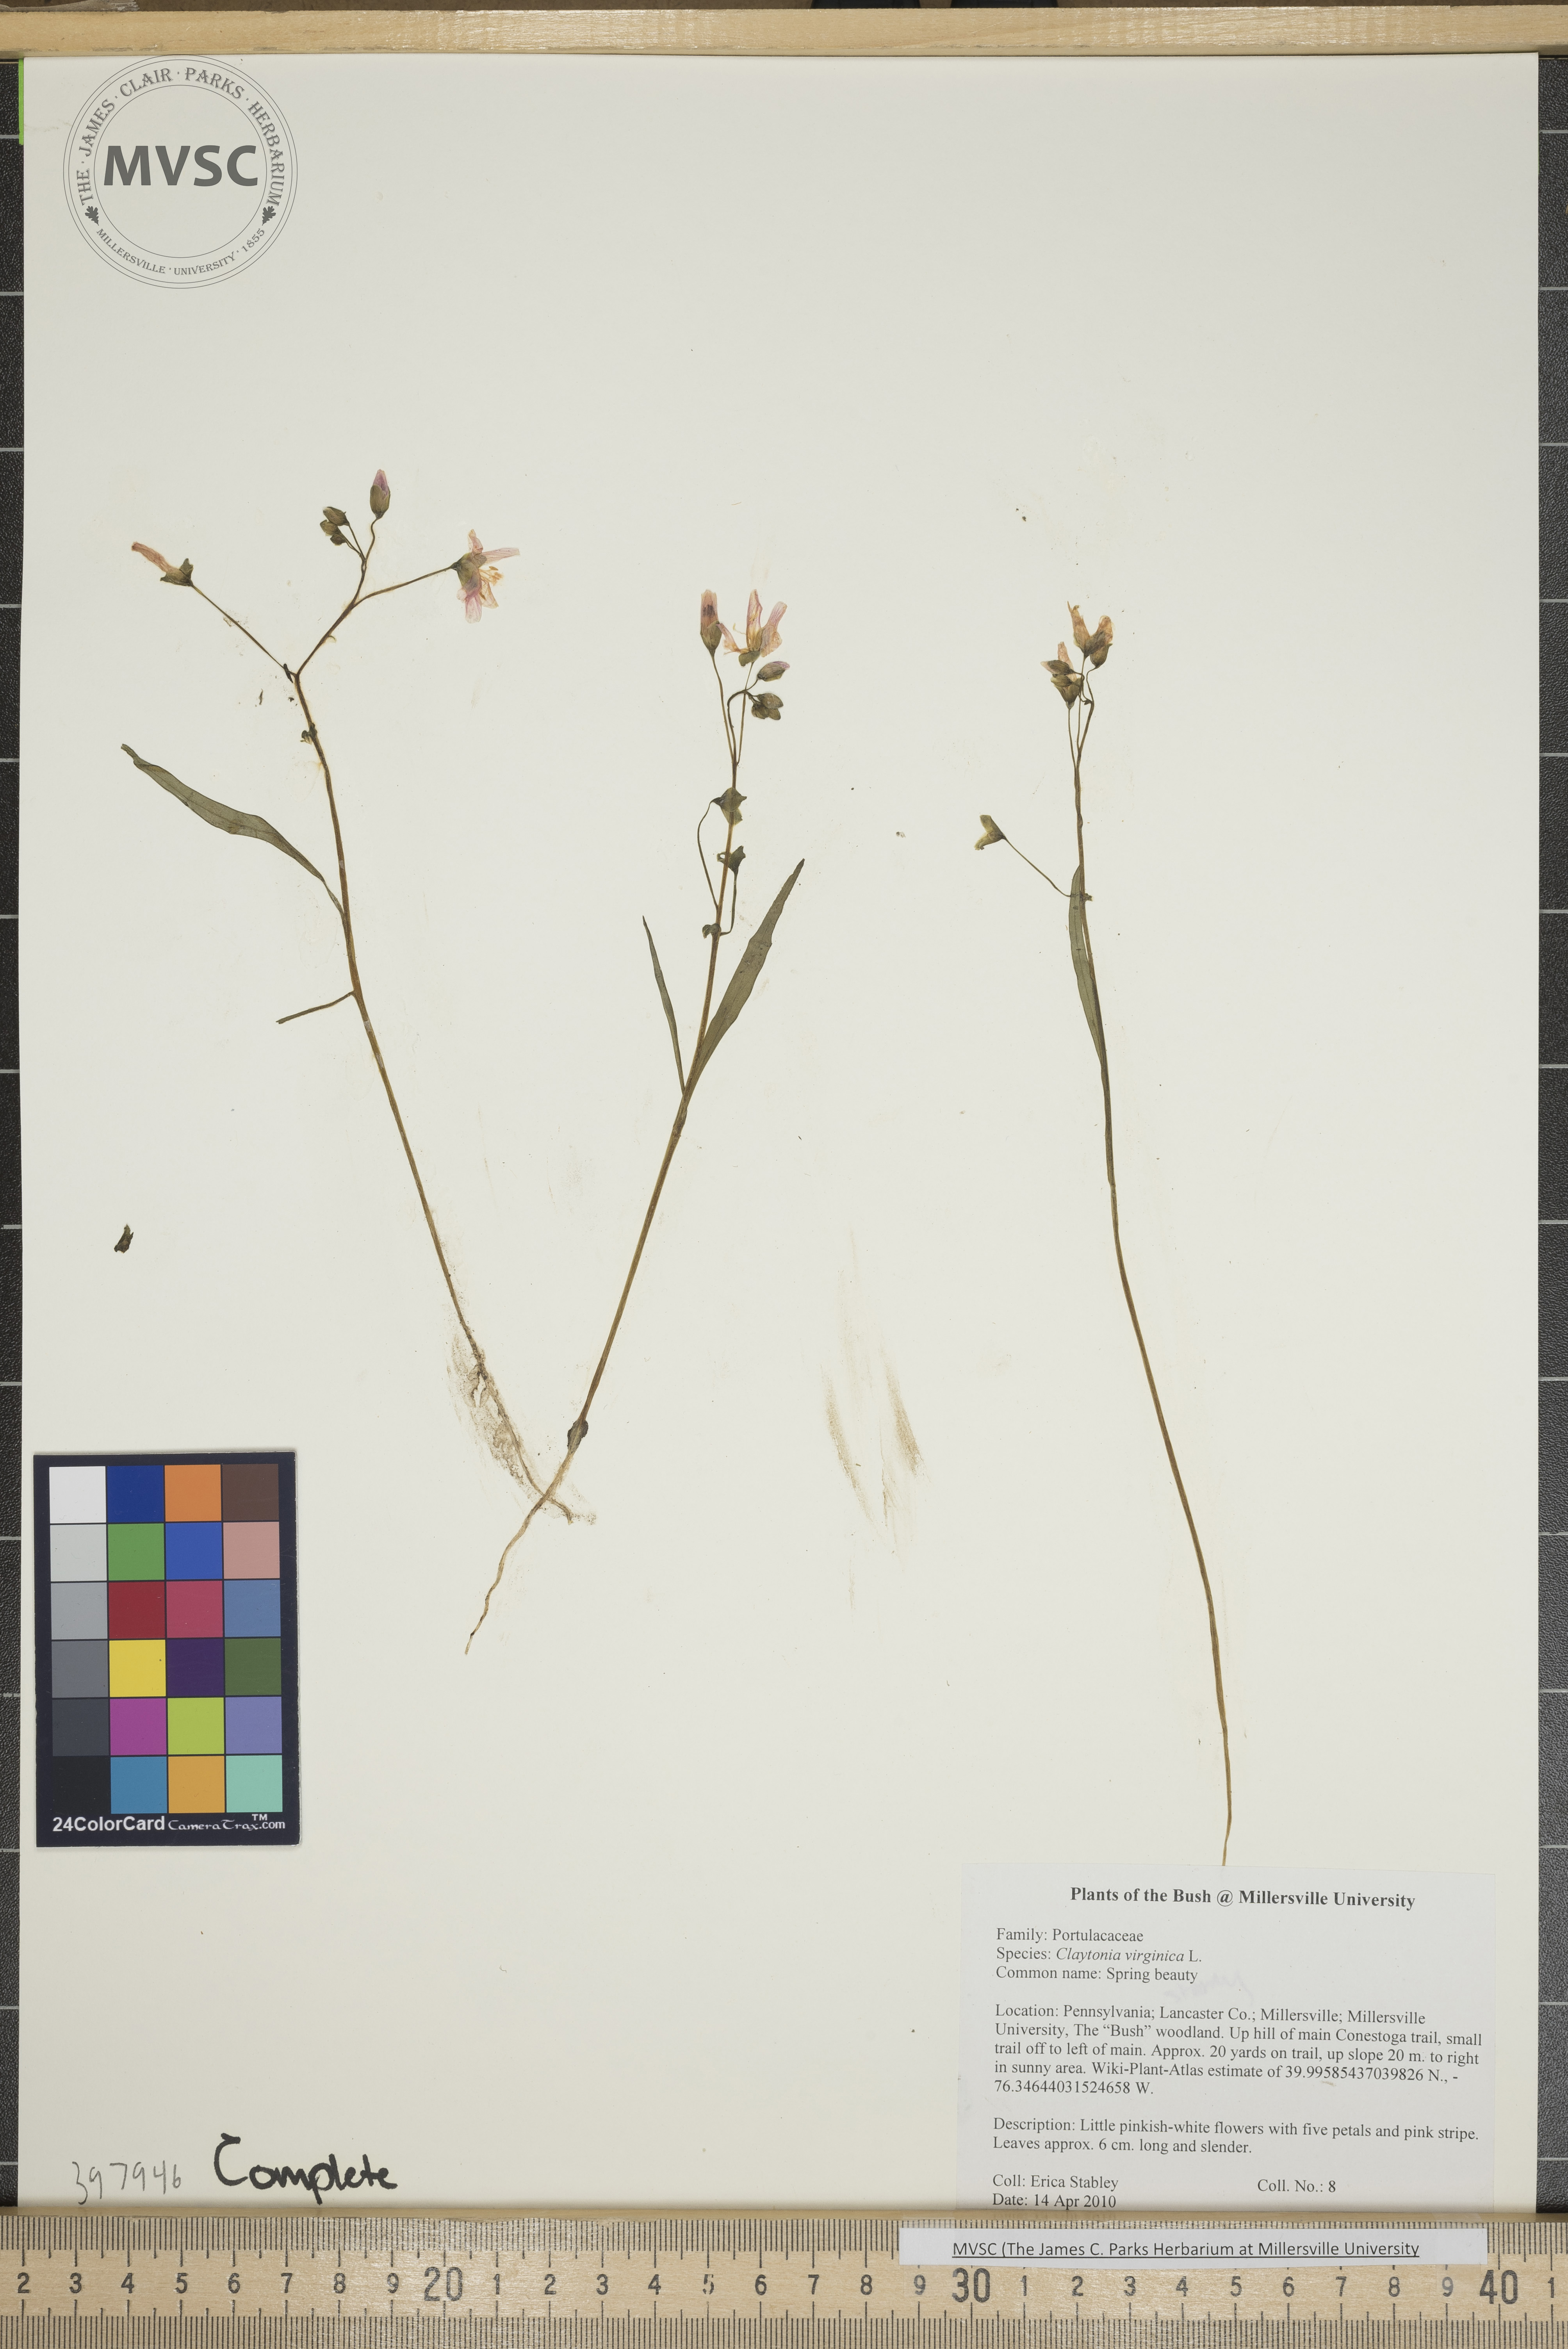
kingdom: Plantae
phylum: Tracheophyta
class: Magnoliopsida
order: Caryophyllales
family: Montiaceae
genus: Claytonia
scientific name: Claytonia virginica
